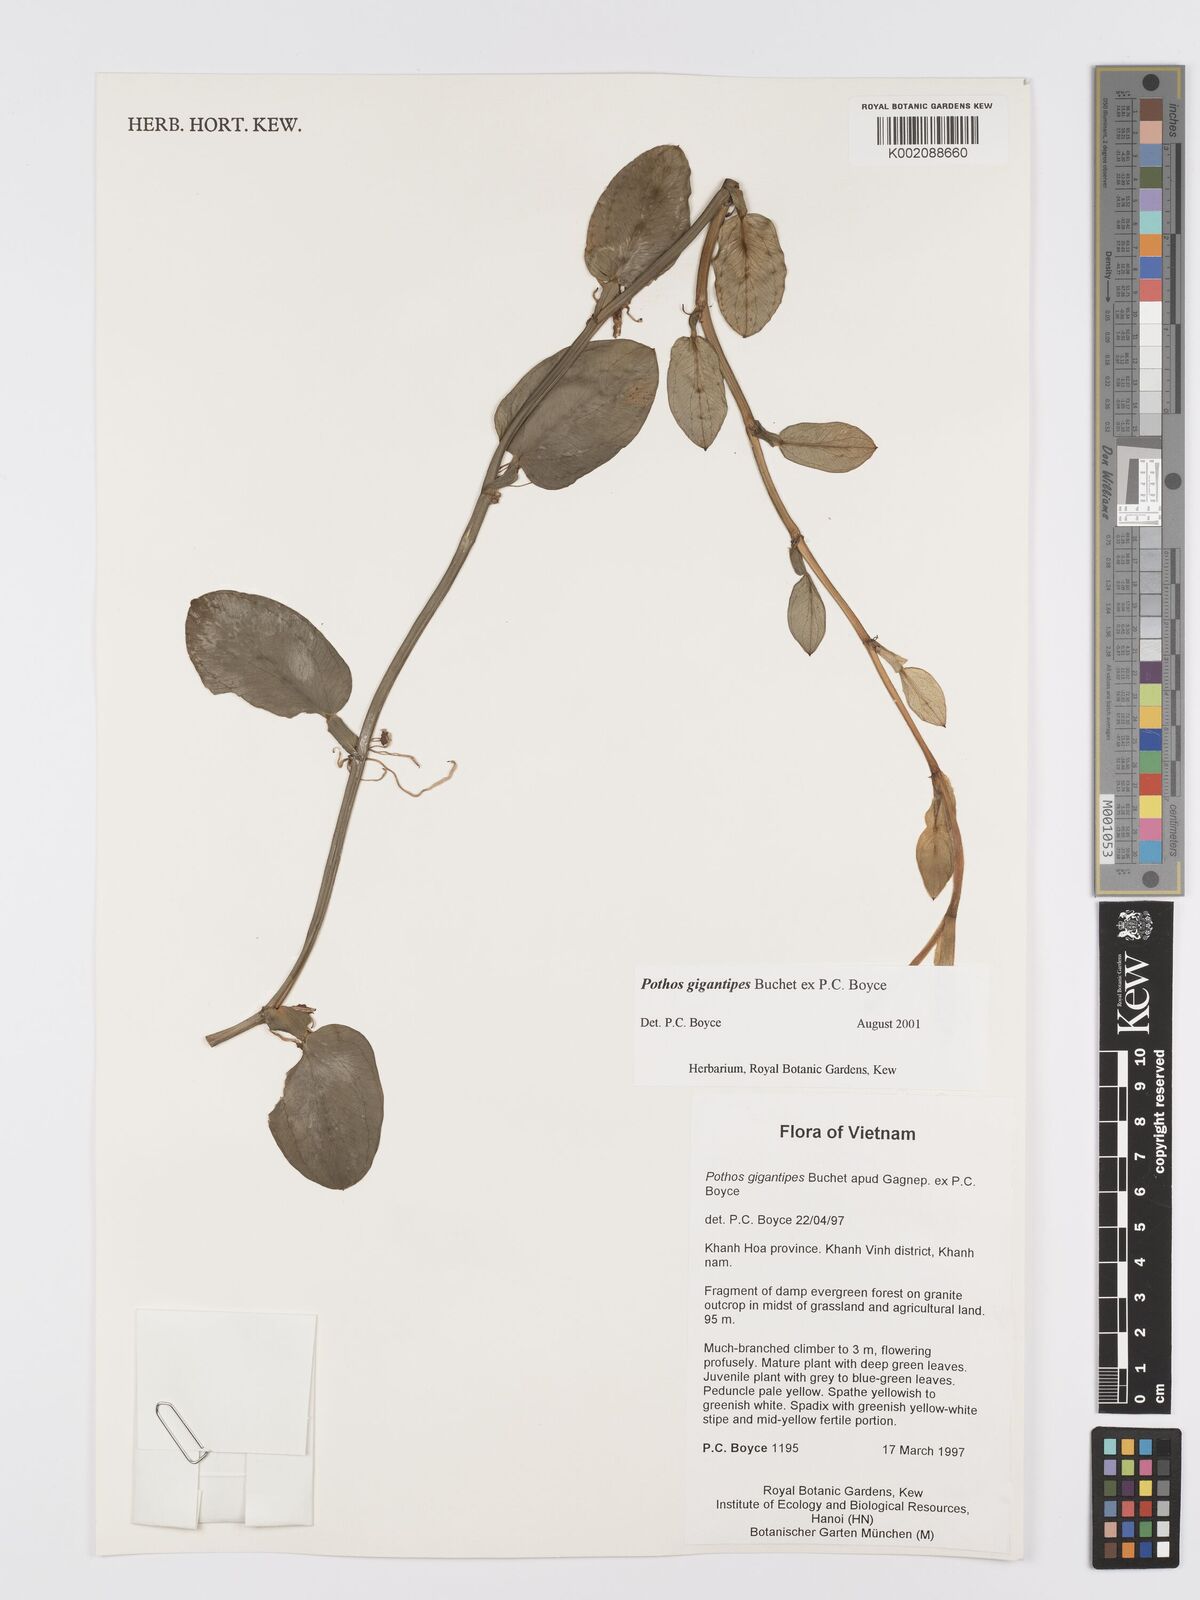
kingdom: Plantae
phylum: Tracheophyta
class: Liliopsida
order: Alismatales
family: Araceae
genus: Pothos
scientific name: Pothos gigantipes
